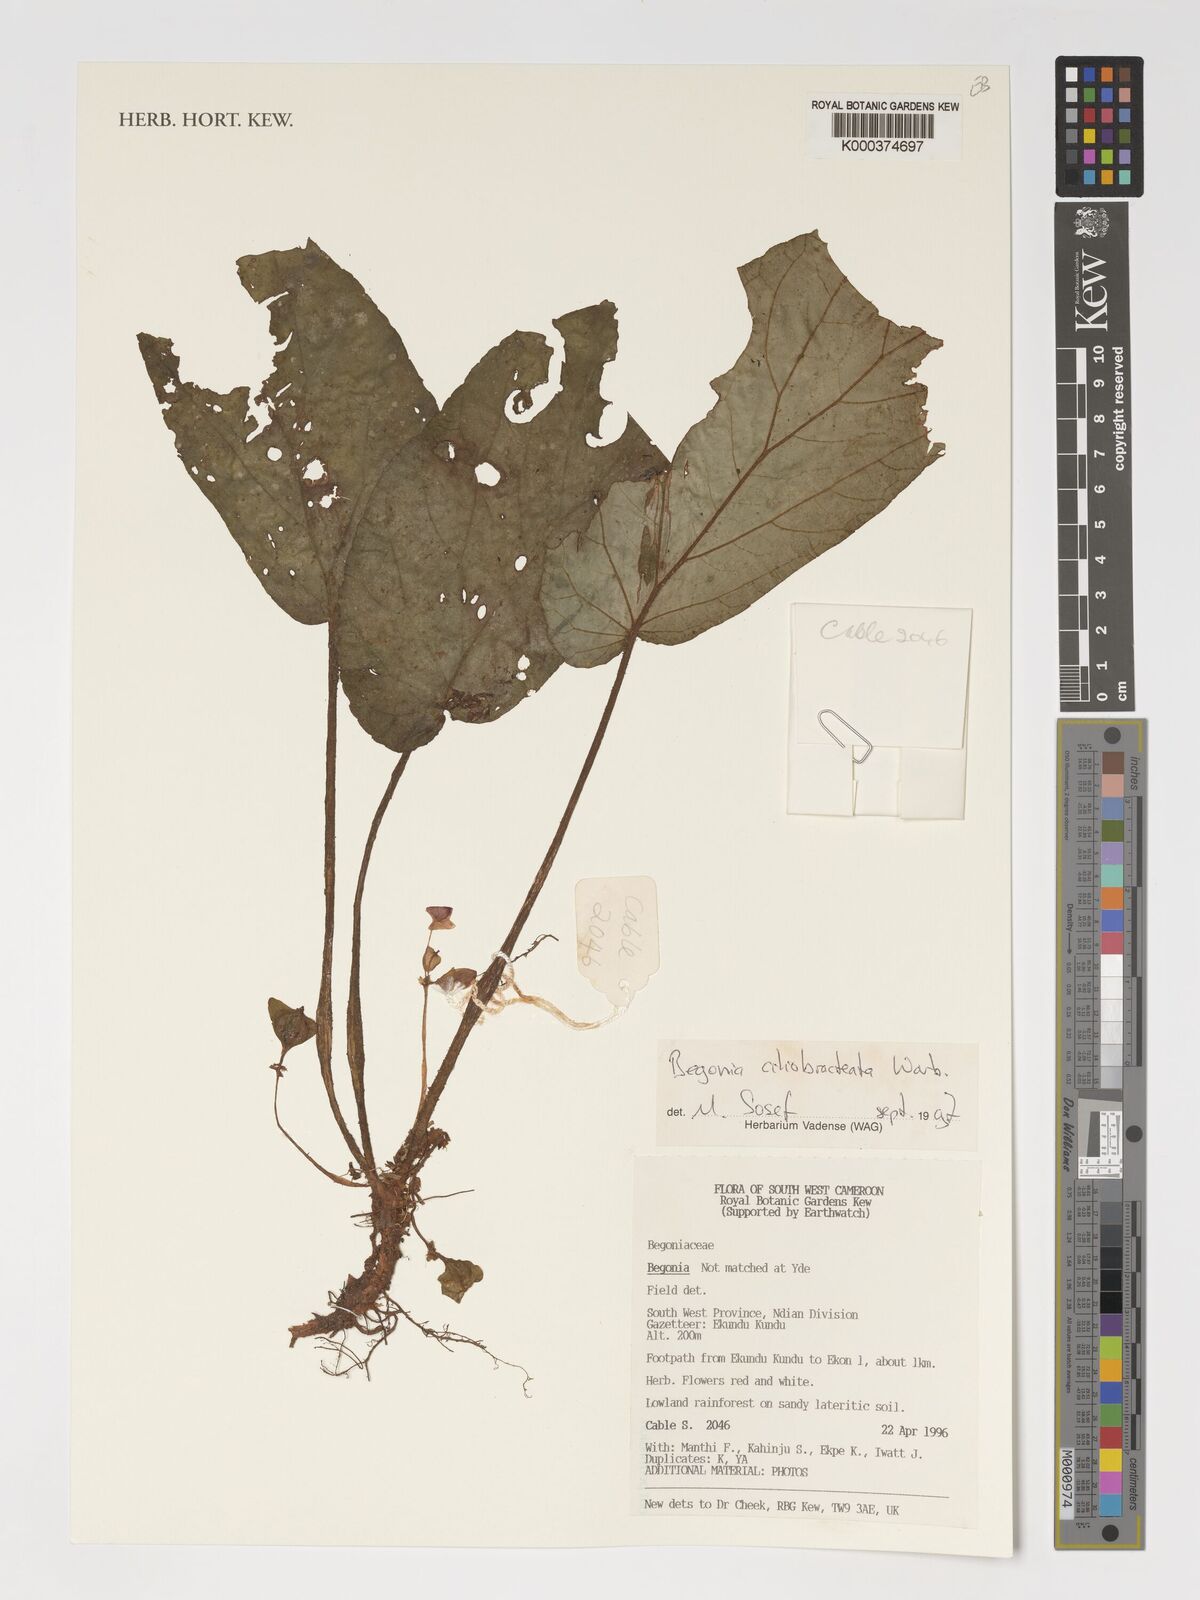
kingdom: Plantae
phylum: Tracheophyta
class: Magnoliopsida
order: Cucurbitales
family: Begoniaceae
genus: Begonia
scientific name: Begonia ciliobracteata
